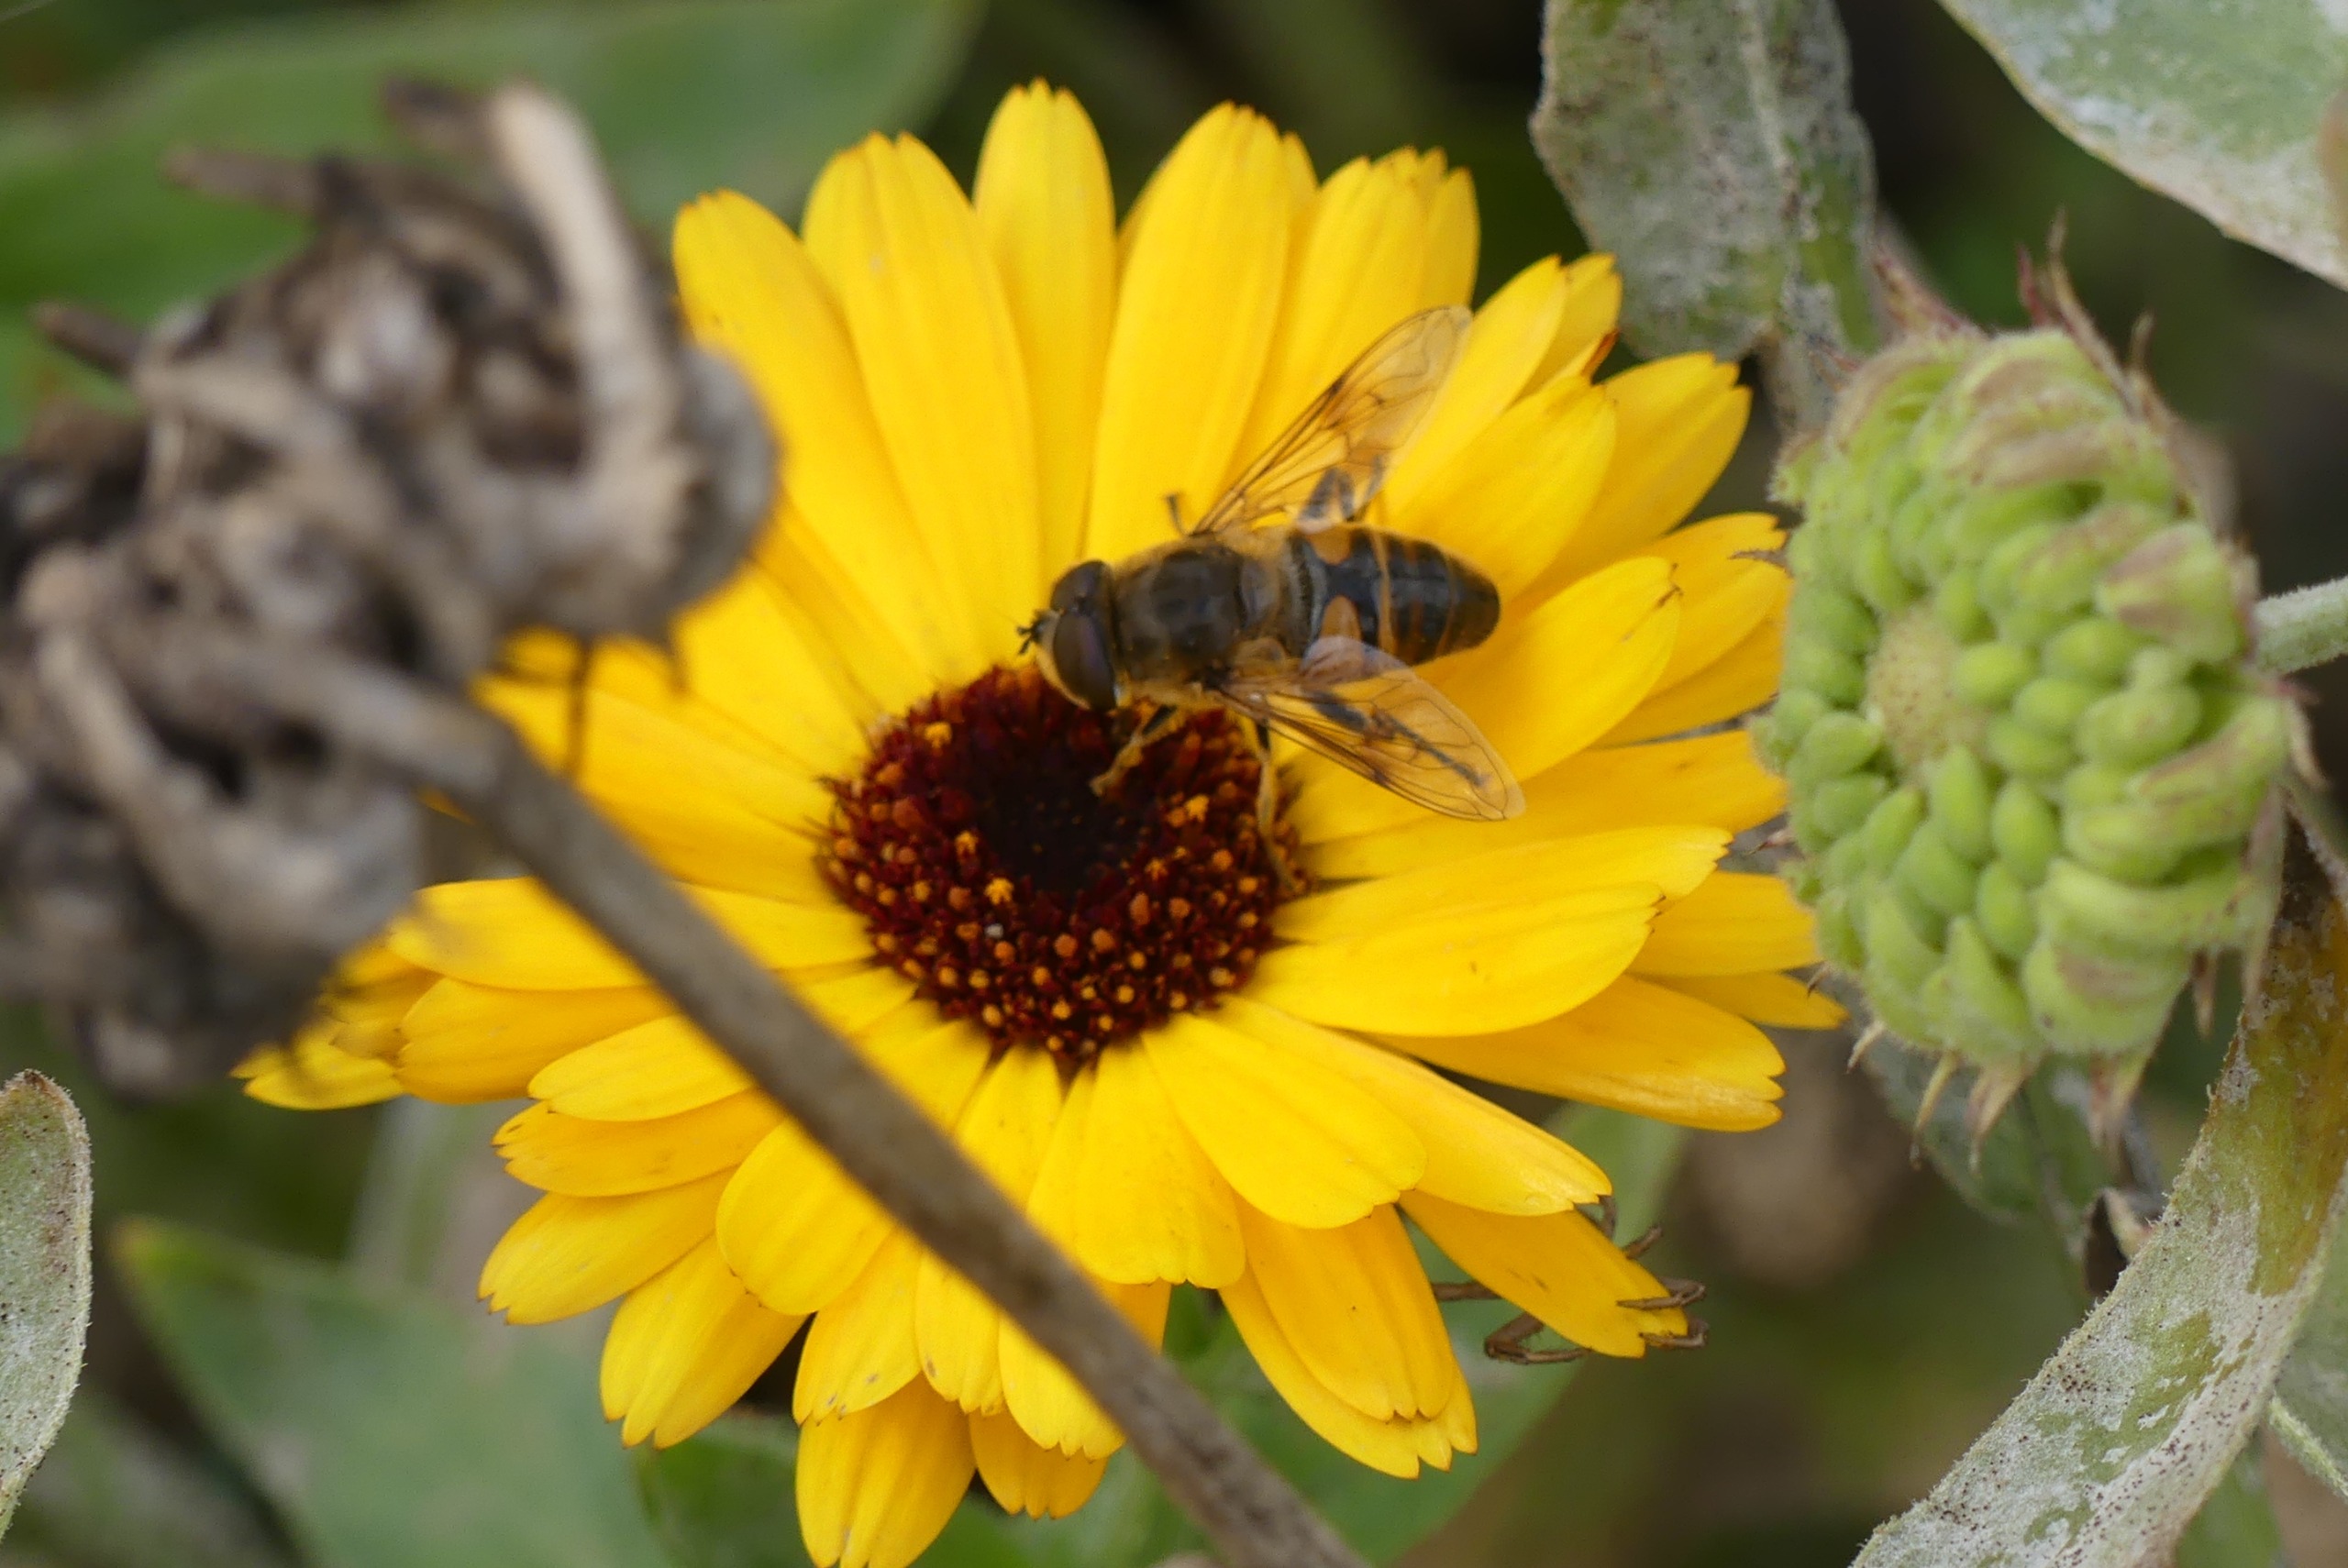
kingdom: Animalia
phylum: Arthropoda
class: Insecta
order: Diptera
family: Syrphidae
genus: Eristalis
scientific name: Eristalis tenax
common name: Droneflue
